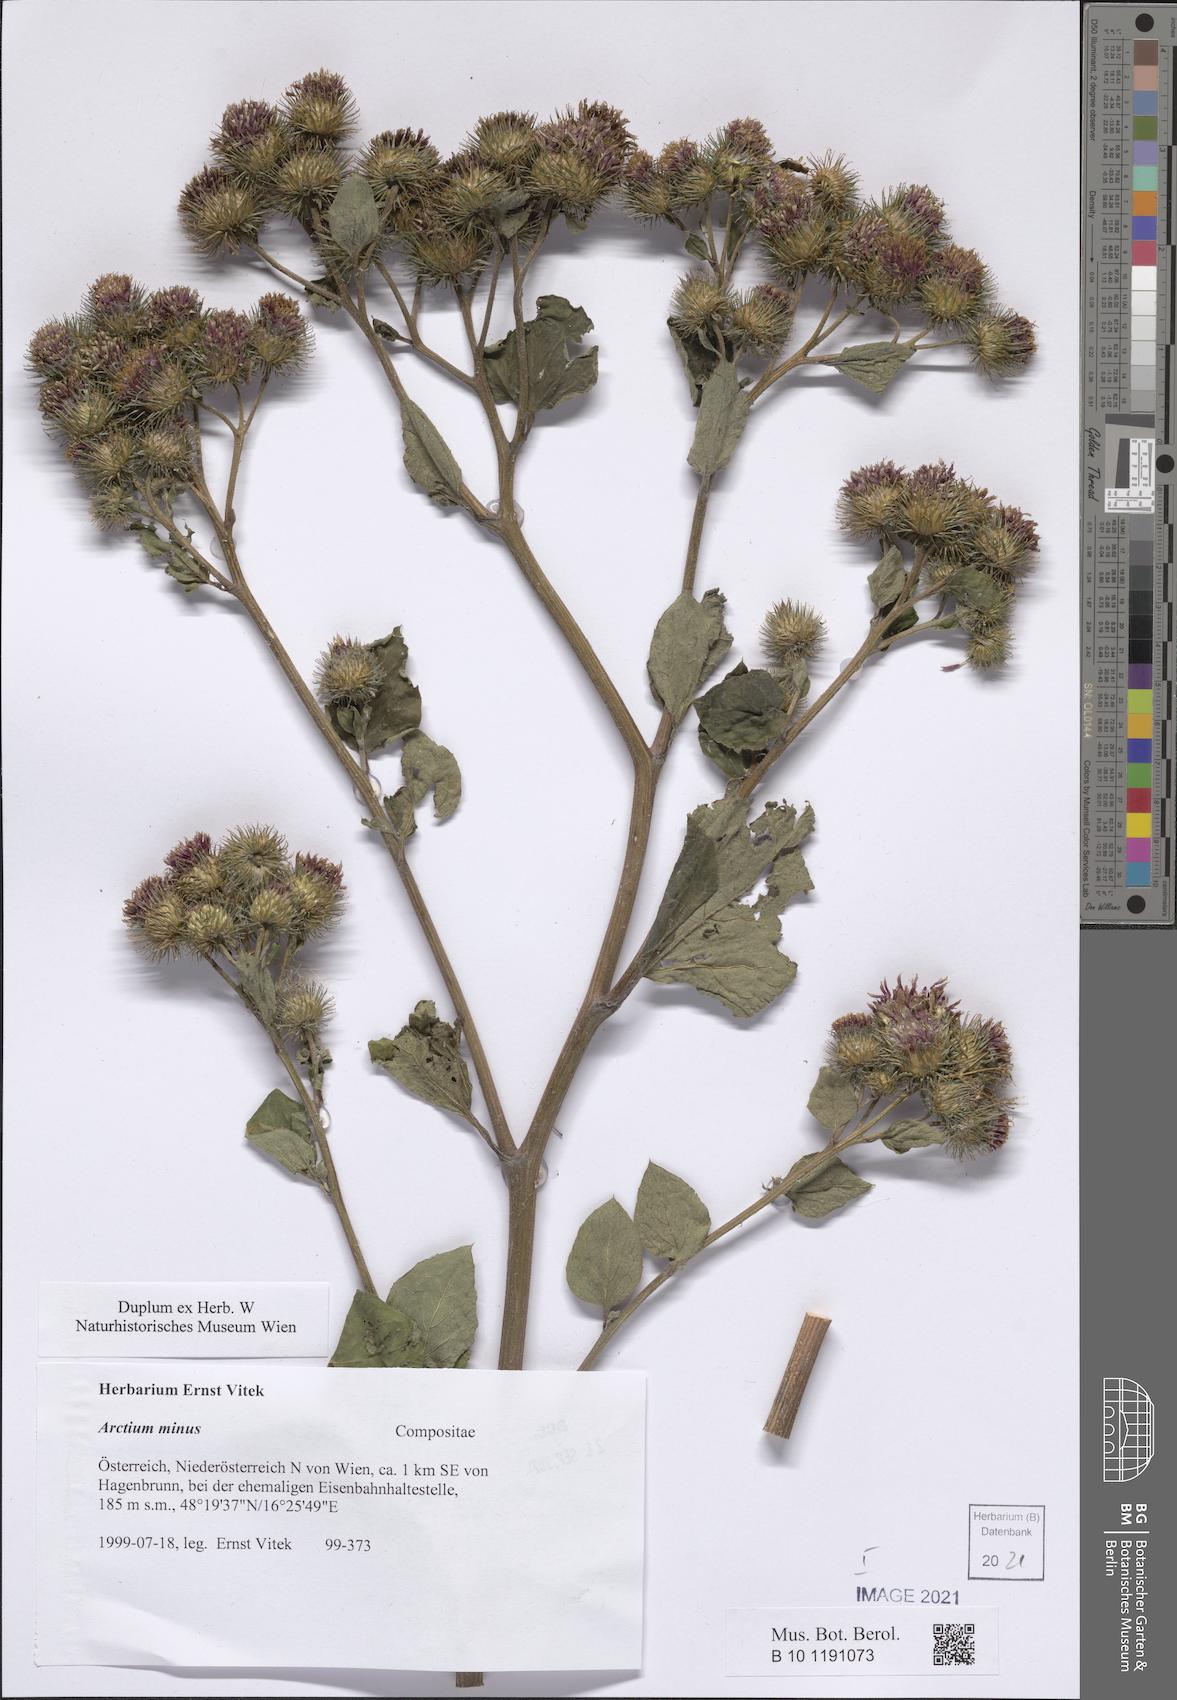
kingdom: Plantae
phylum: Tracheophyta
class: Magnoliopsida
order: Asterales
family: Asteraceae
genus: Arctium
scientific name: Arctium minus
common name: Lesser burdock
